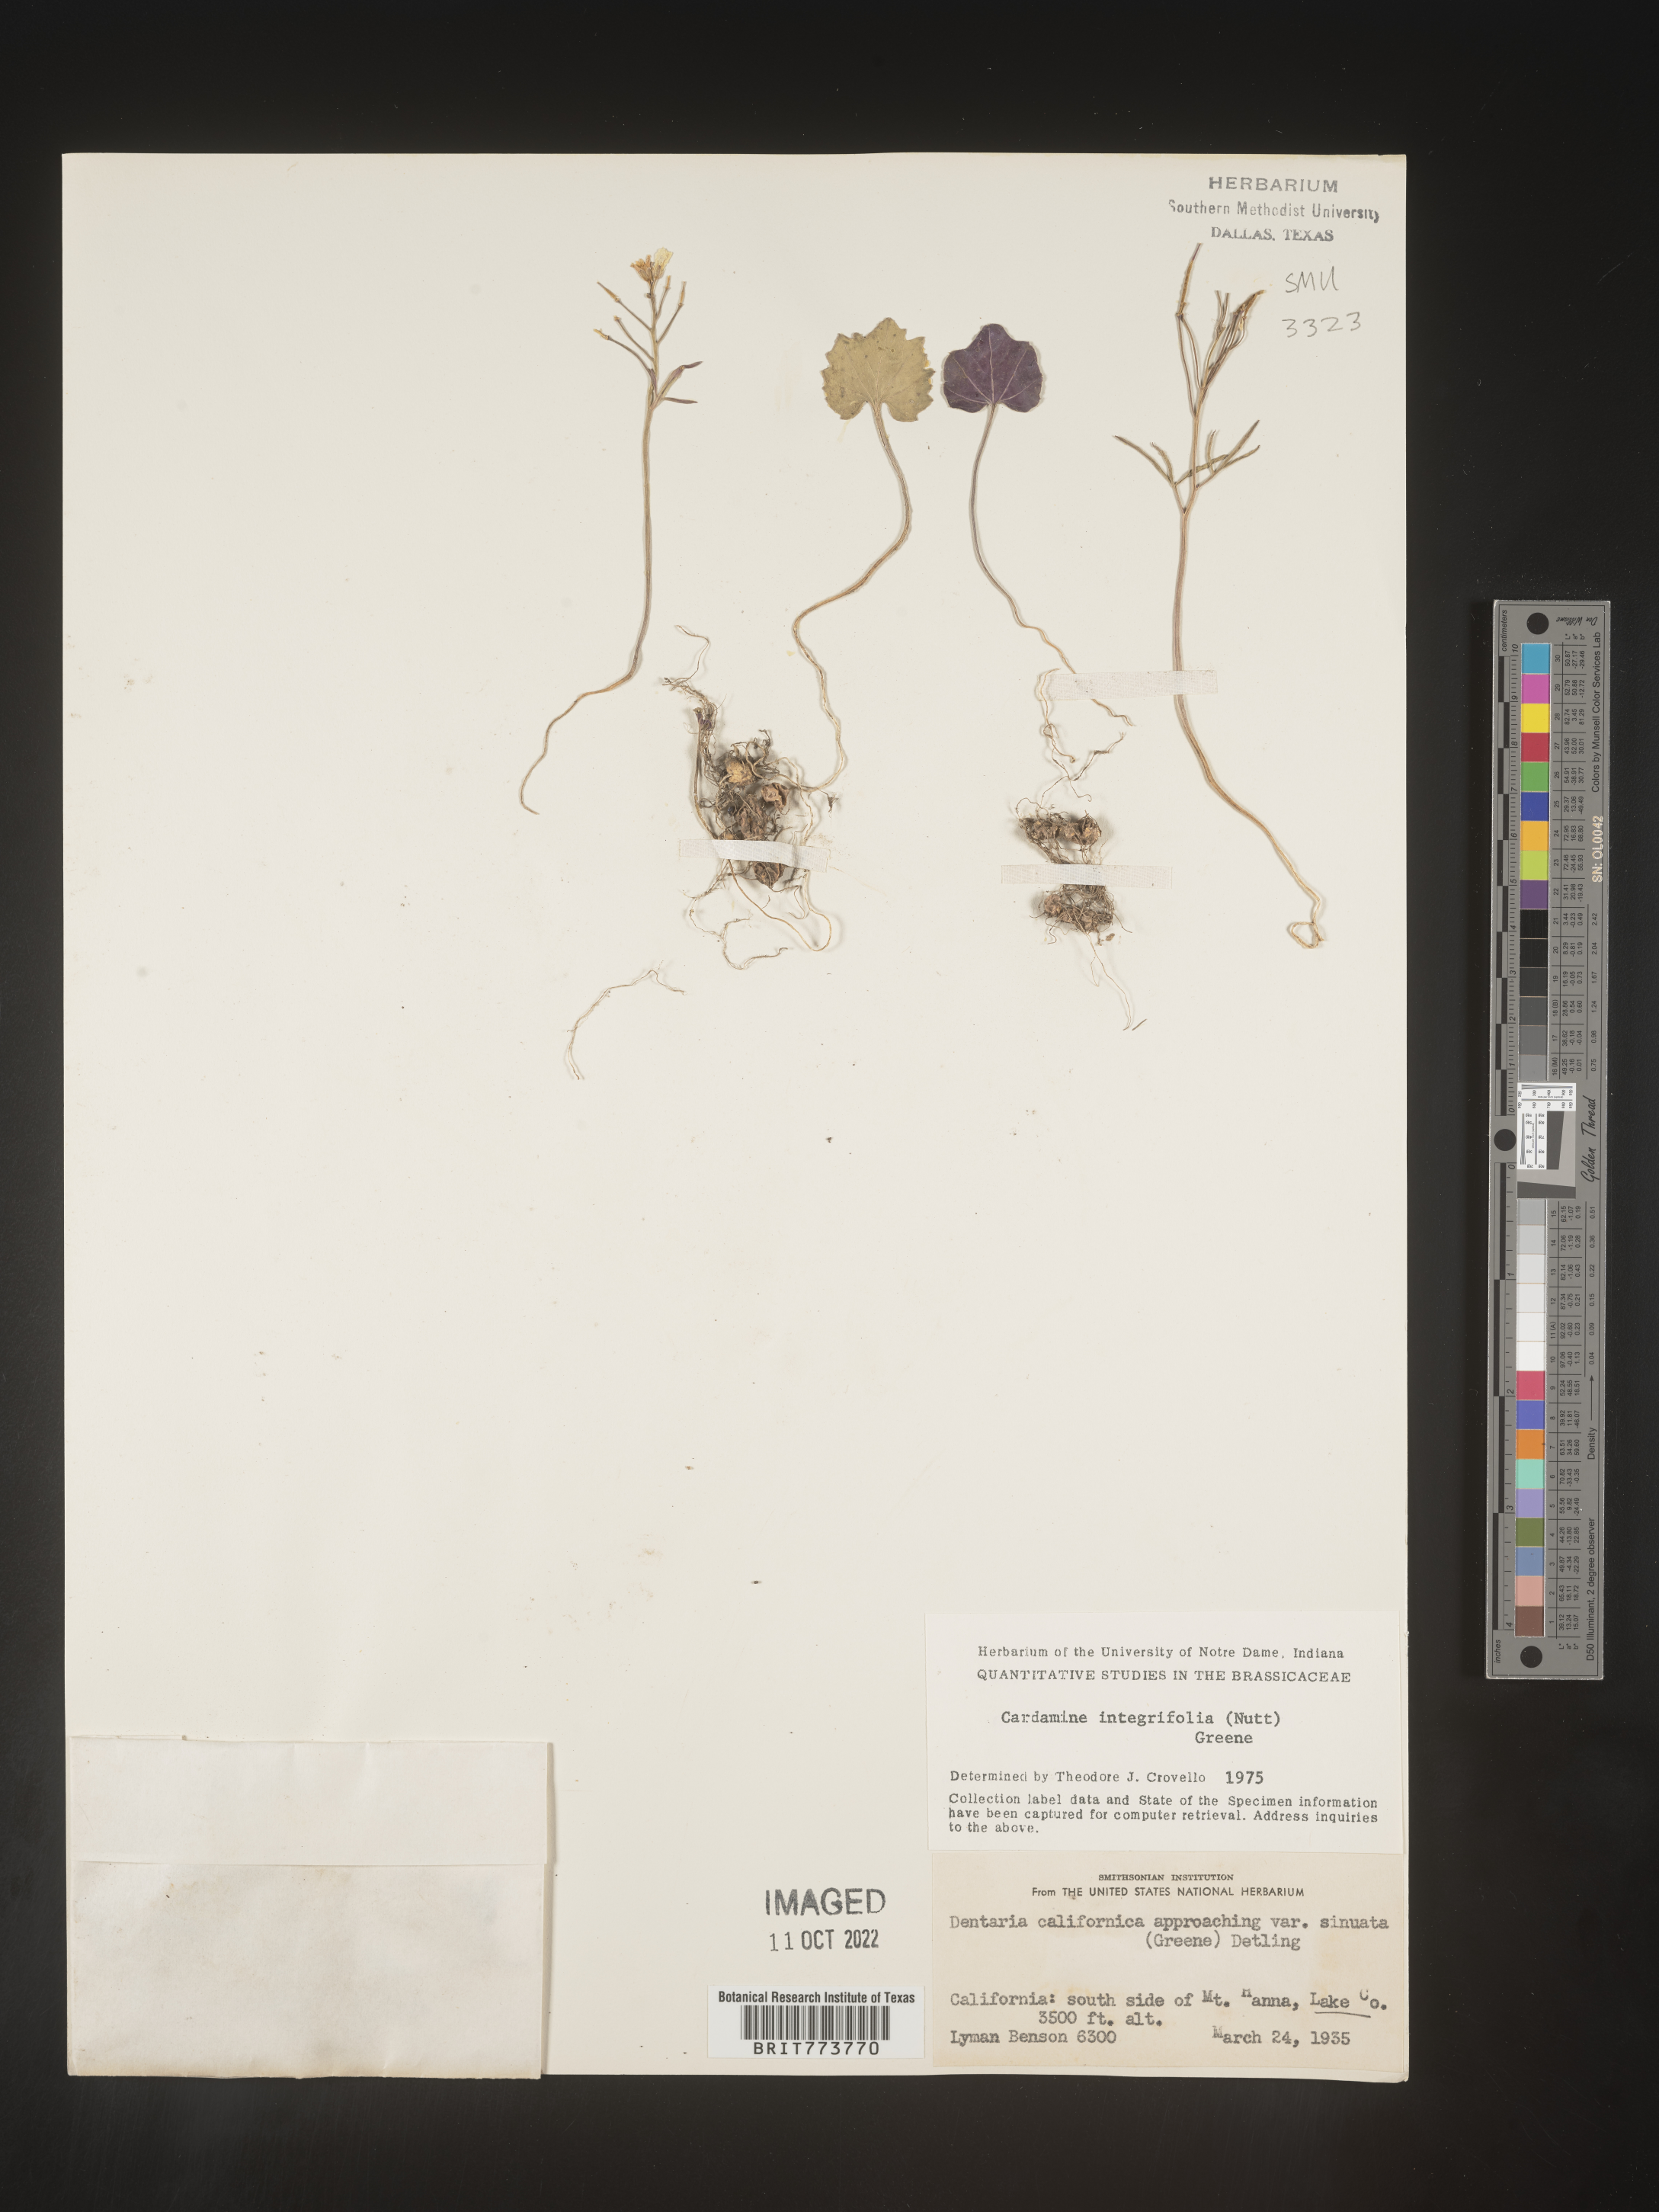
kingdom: Plantae
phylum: Tracheophyta
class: Magnoliopsida
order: Brassicales
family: Brassicaceae
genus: Cardamine
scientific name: Cardamine bellidifolia
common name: Alpine bittercress
